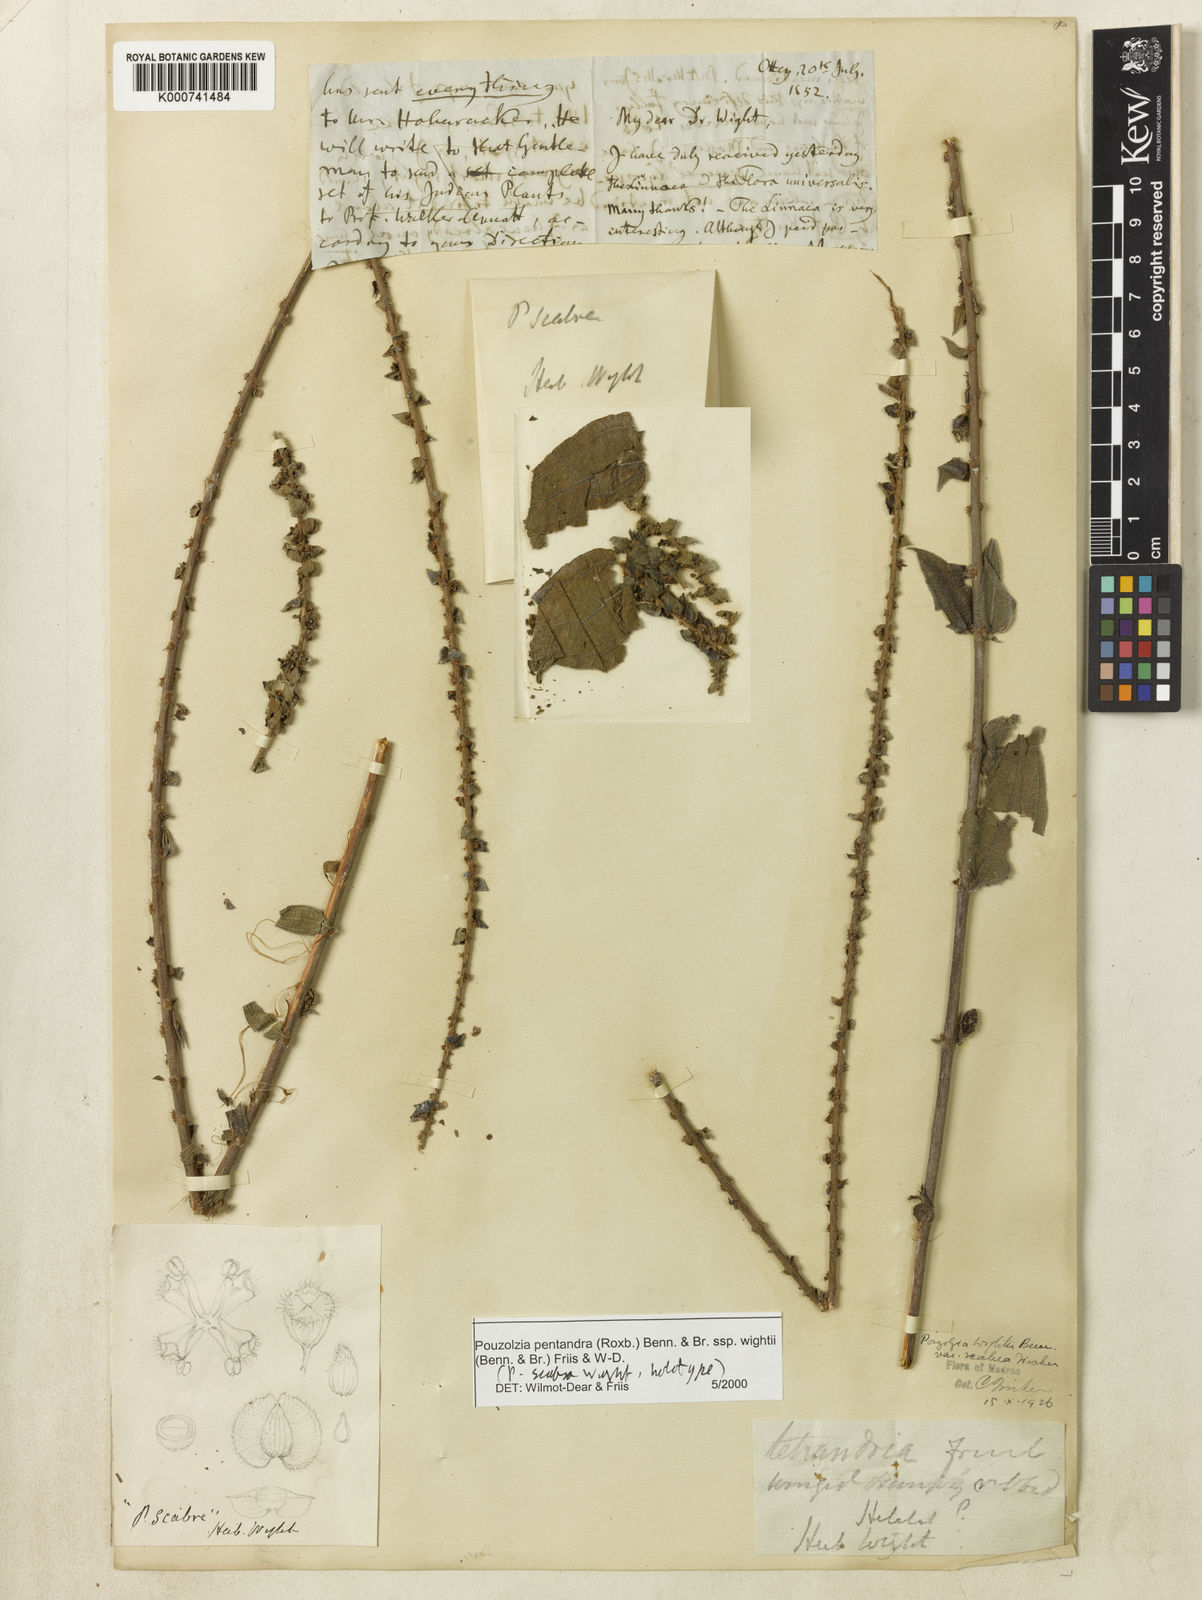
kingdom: Plantae
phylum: Tracheophyta
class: Magnoliopsida
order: Rosales
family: Urticaceae
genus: Gonostegia
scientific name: Gonostegia pentandra
